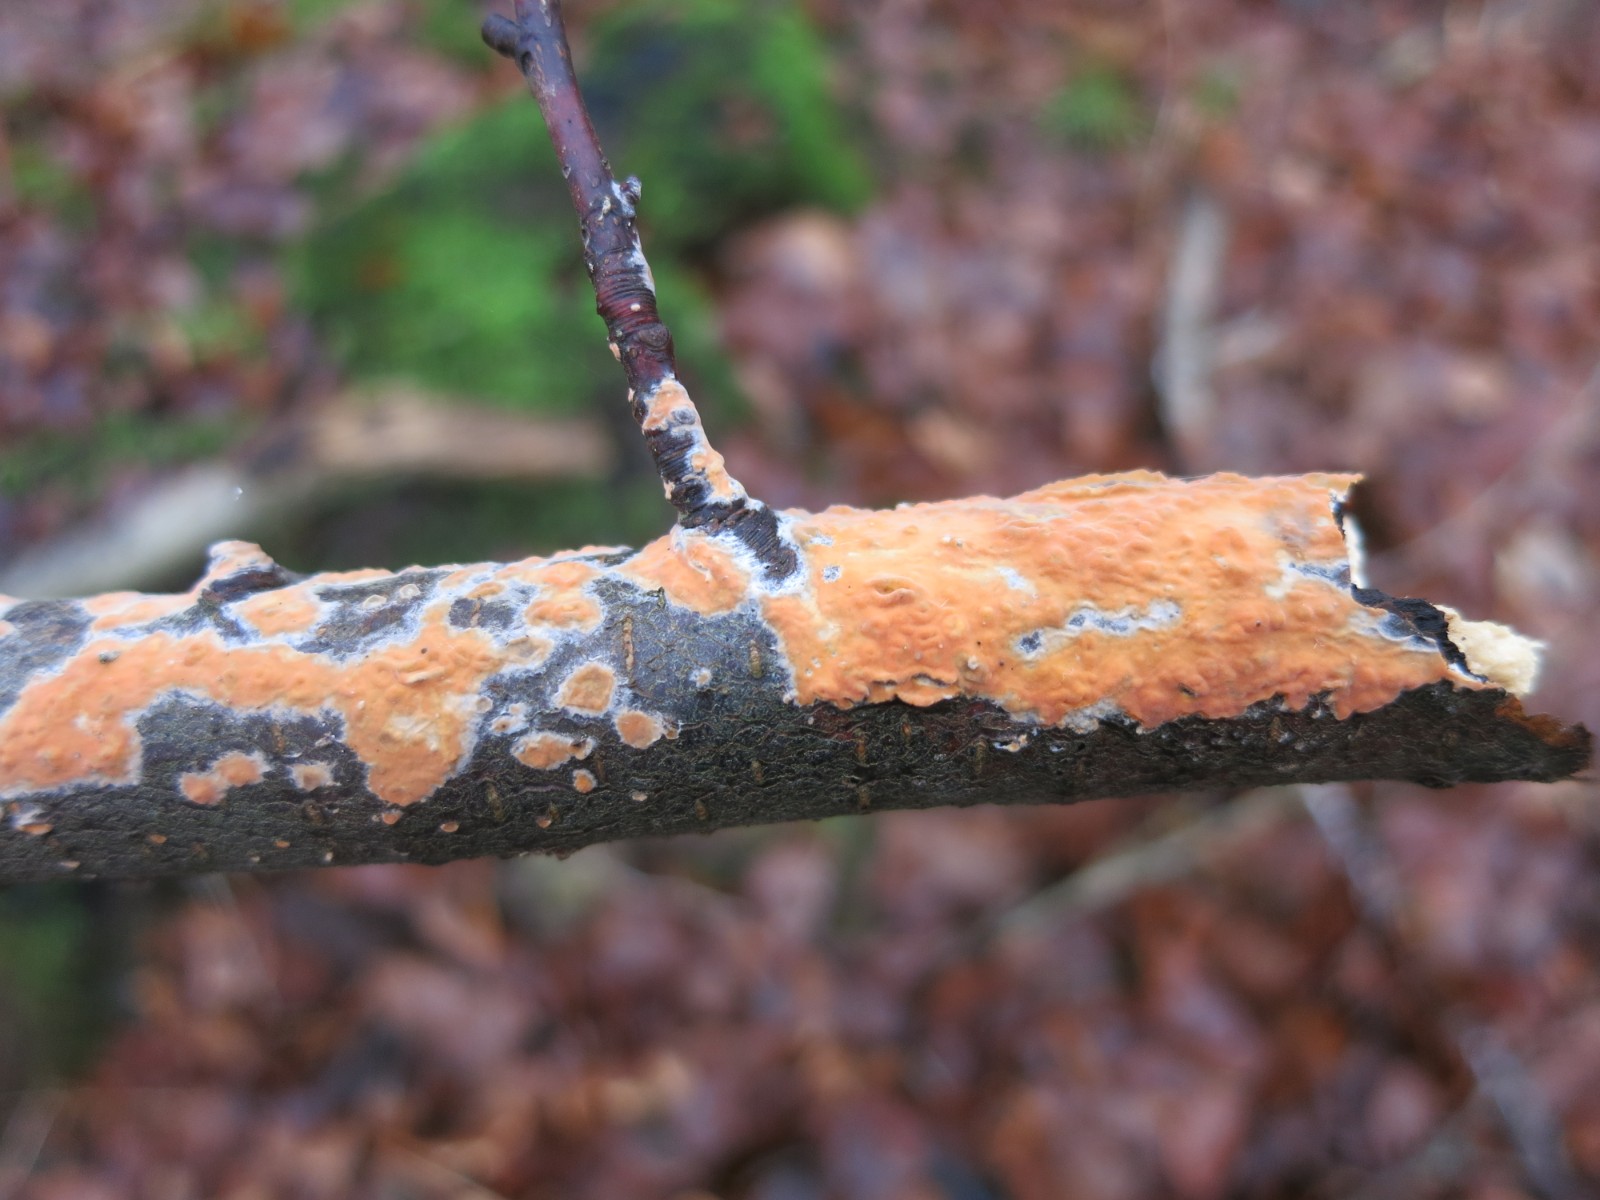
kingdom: Fungi
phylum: Basidiomycota
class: Agaricomycetes
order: Russulales
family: Peniophoraceae
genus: Peniophora
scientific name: Peniophora incarnata
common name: laksefarvet voksskind
